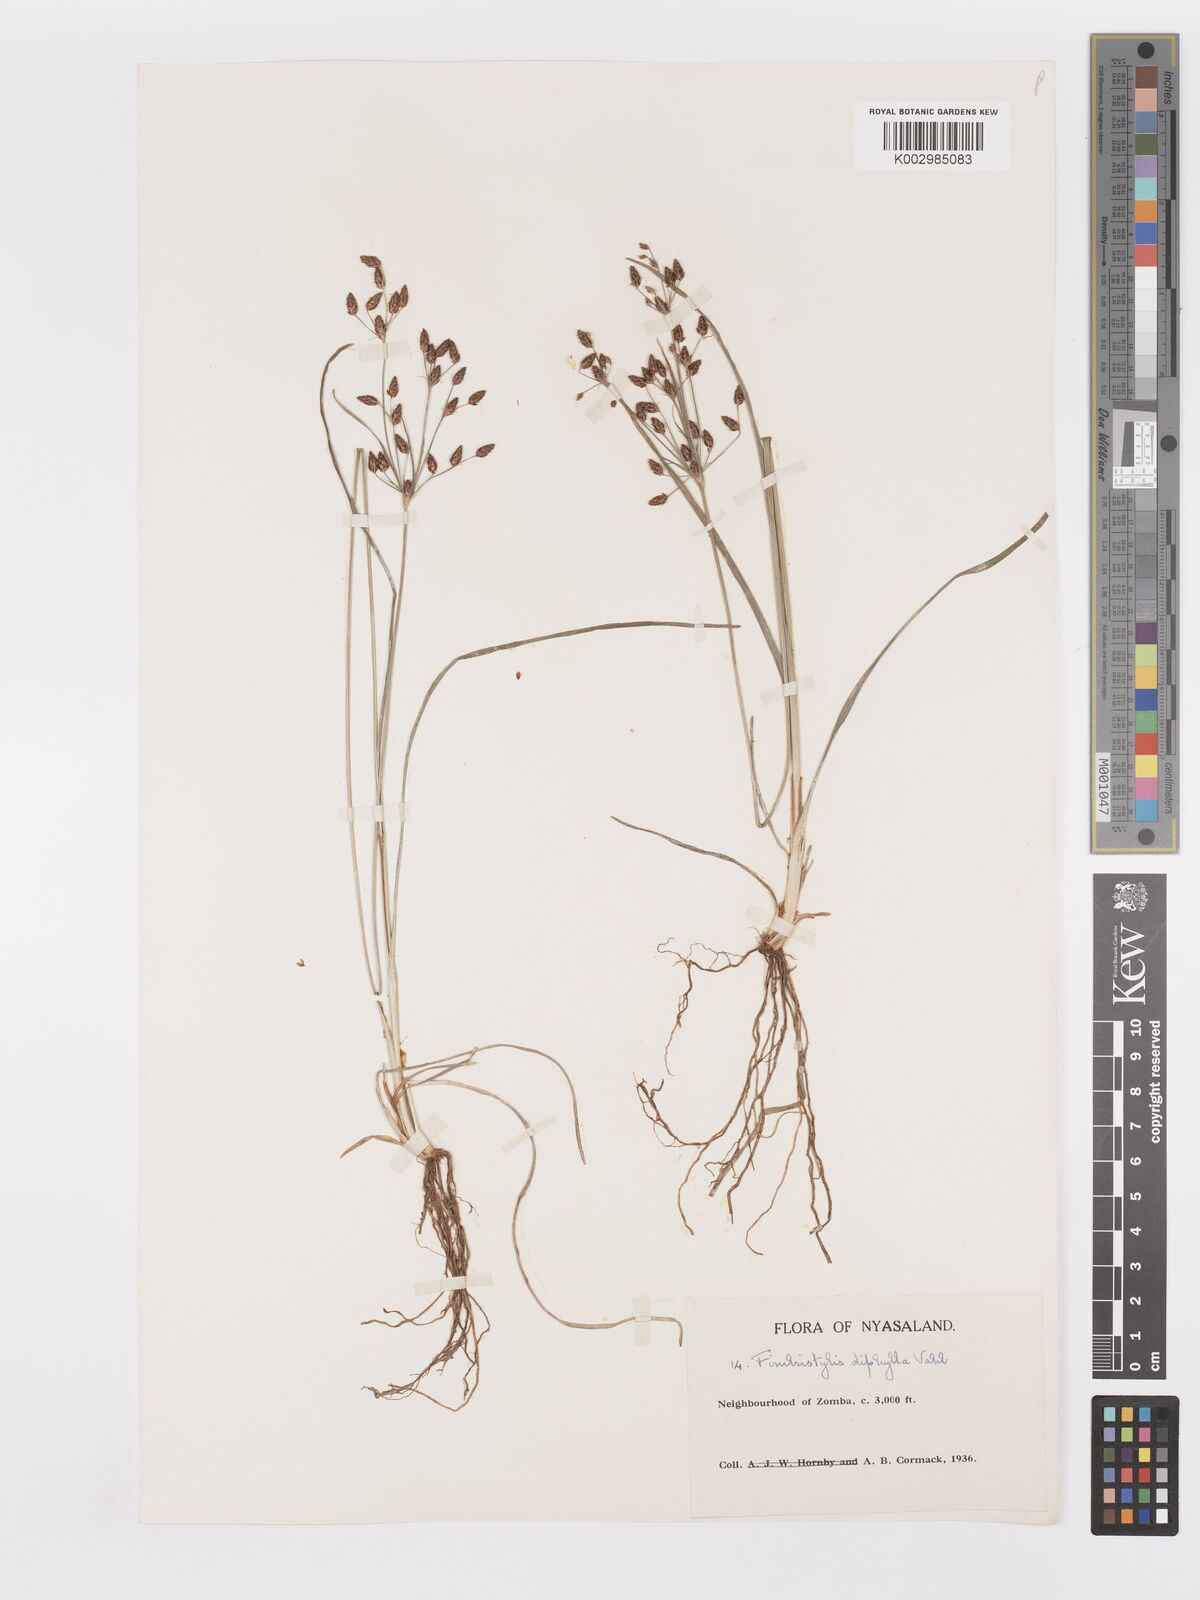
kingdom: Plantae
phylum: Tracheophyta
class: Liliopsida
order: Poales
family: Cyperaceae
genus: Fimbristylis
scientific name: Fimbristylis dichotoma
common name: Forked fimbry
